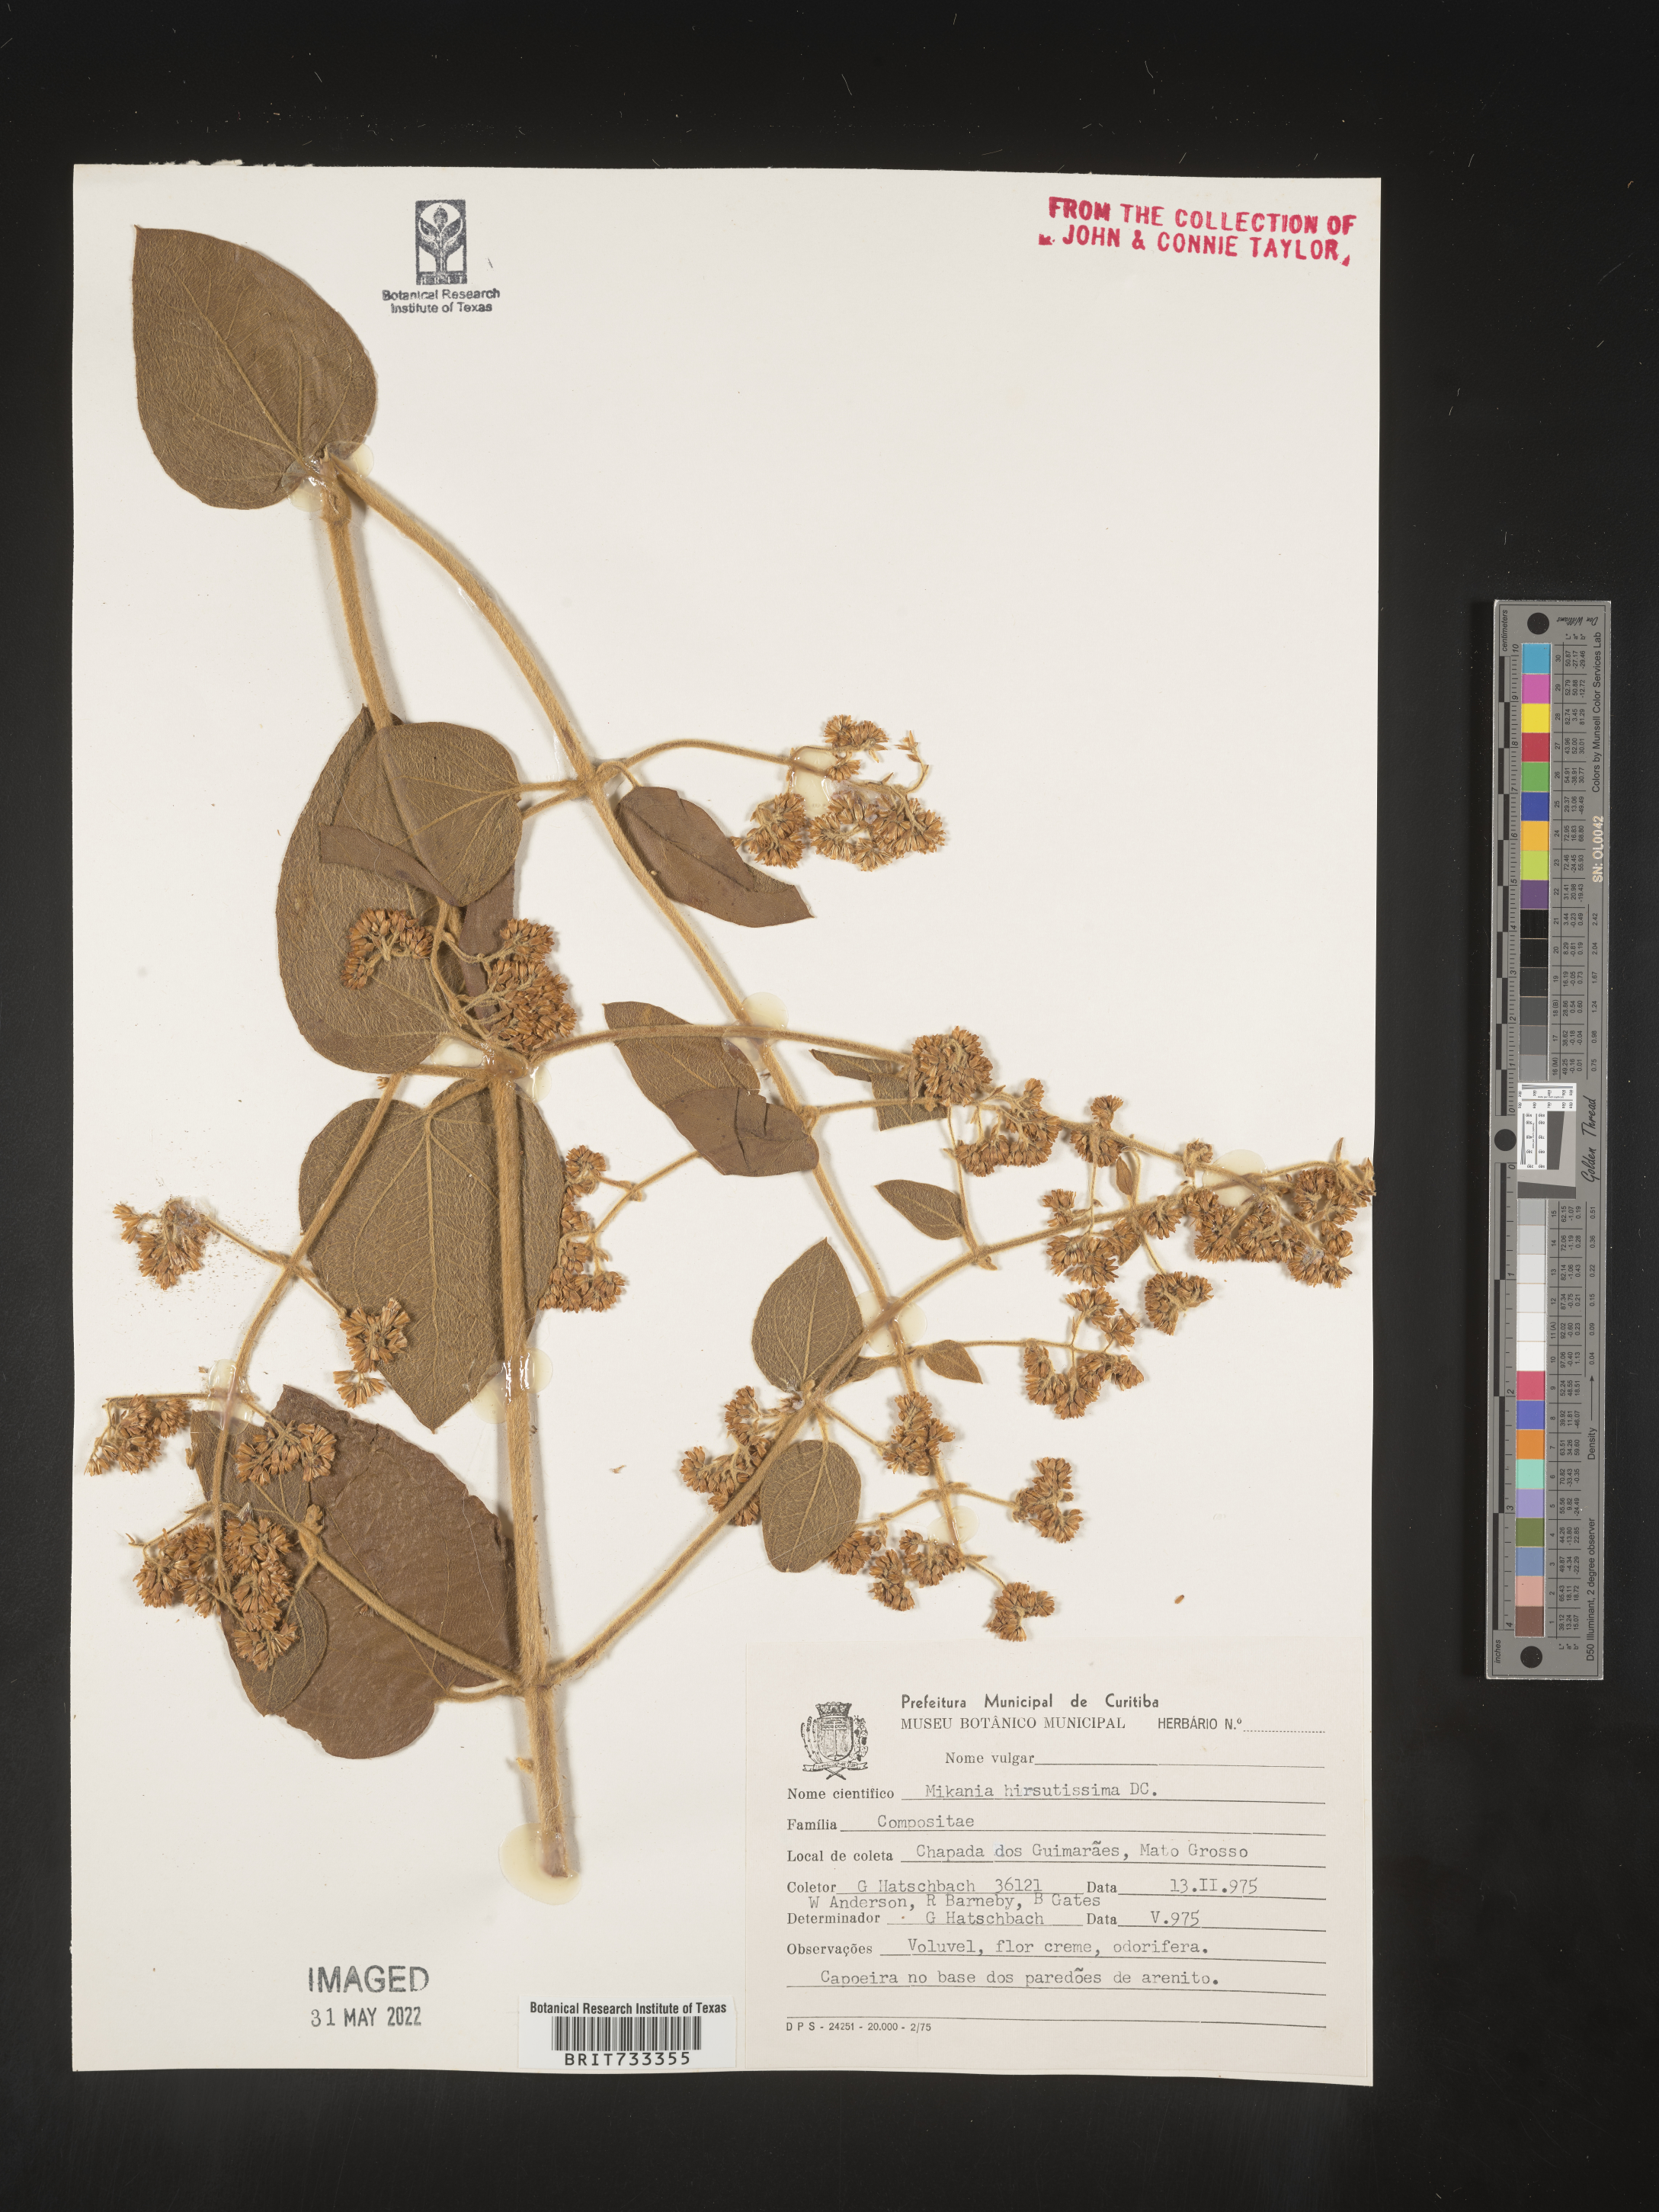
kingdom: Plantae
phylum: Tracheophyta
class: Magnoliopsida
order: Asterales
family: Asteraceae
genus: Mikania
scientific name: Mikania
